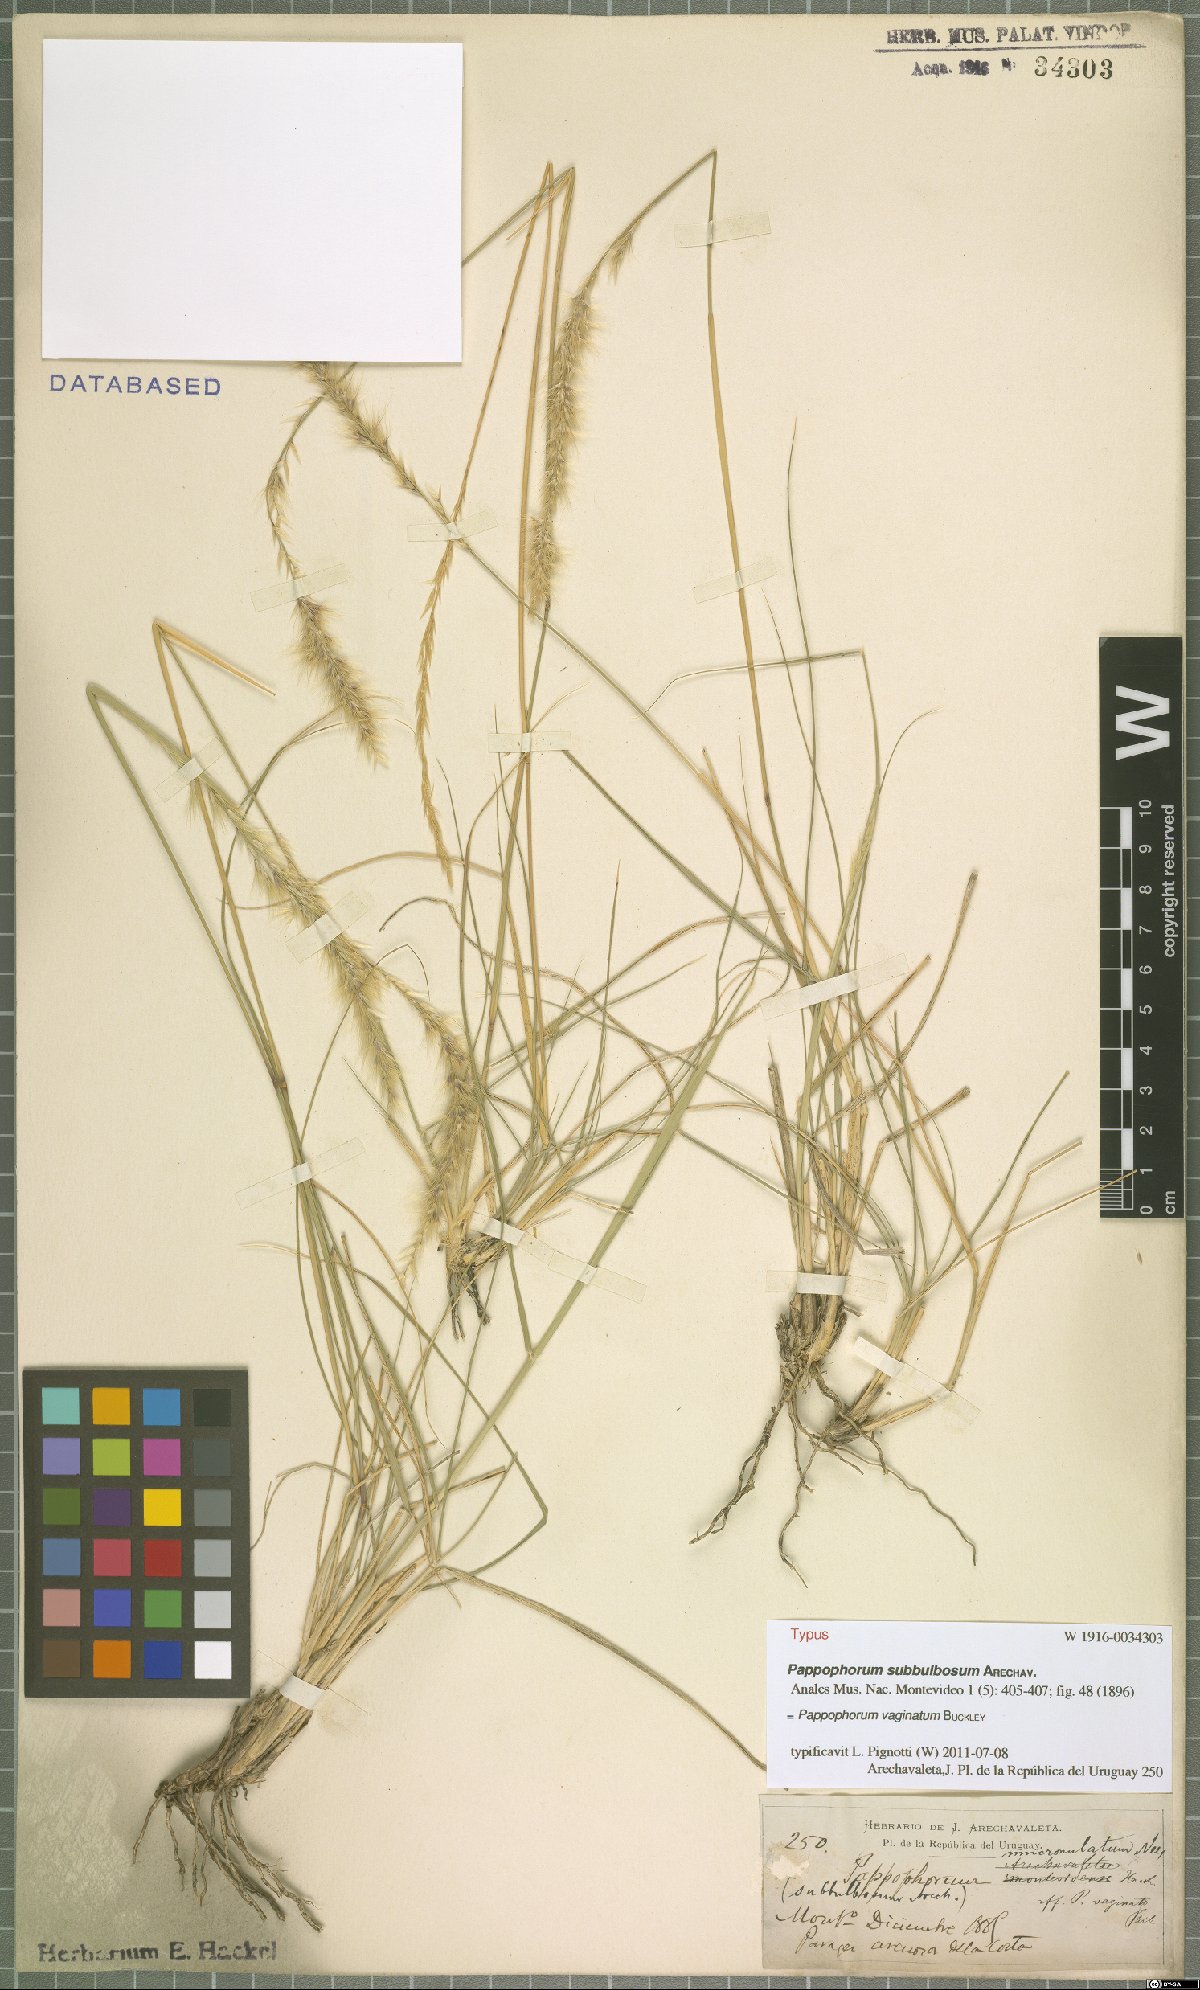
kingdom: Plantae
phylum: Tracheophyta
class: Liliopsida
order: Poales
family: Poaceae
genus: Pappophorum
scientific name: Pappophorum mucronulatum
